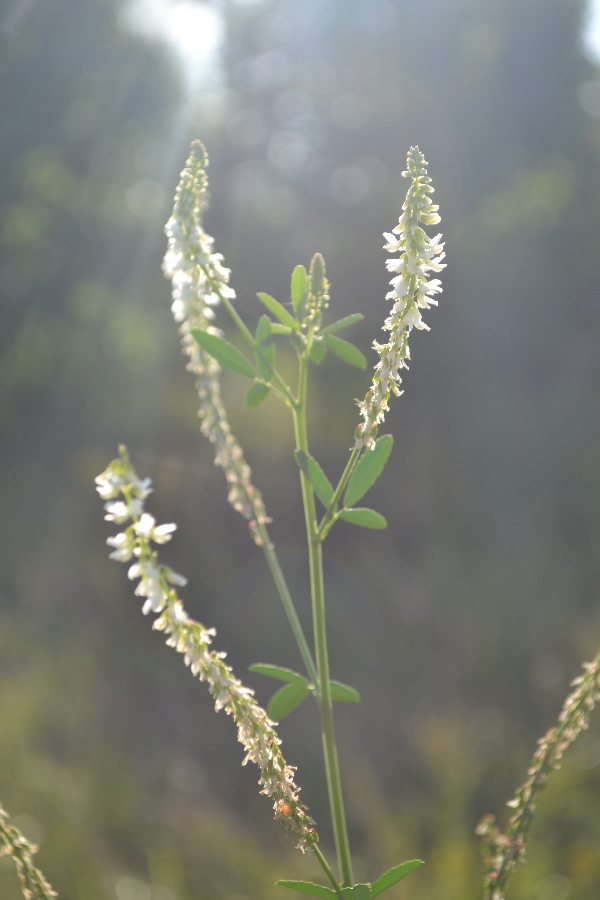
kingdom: Plantae
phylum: Tracheophyta
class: Magnoliopsida
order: Fabales
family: Fabaceae
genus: Melilotus
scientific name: Melilotus albus
